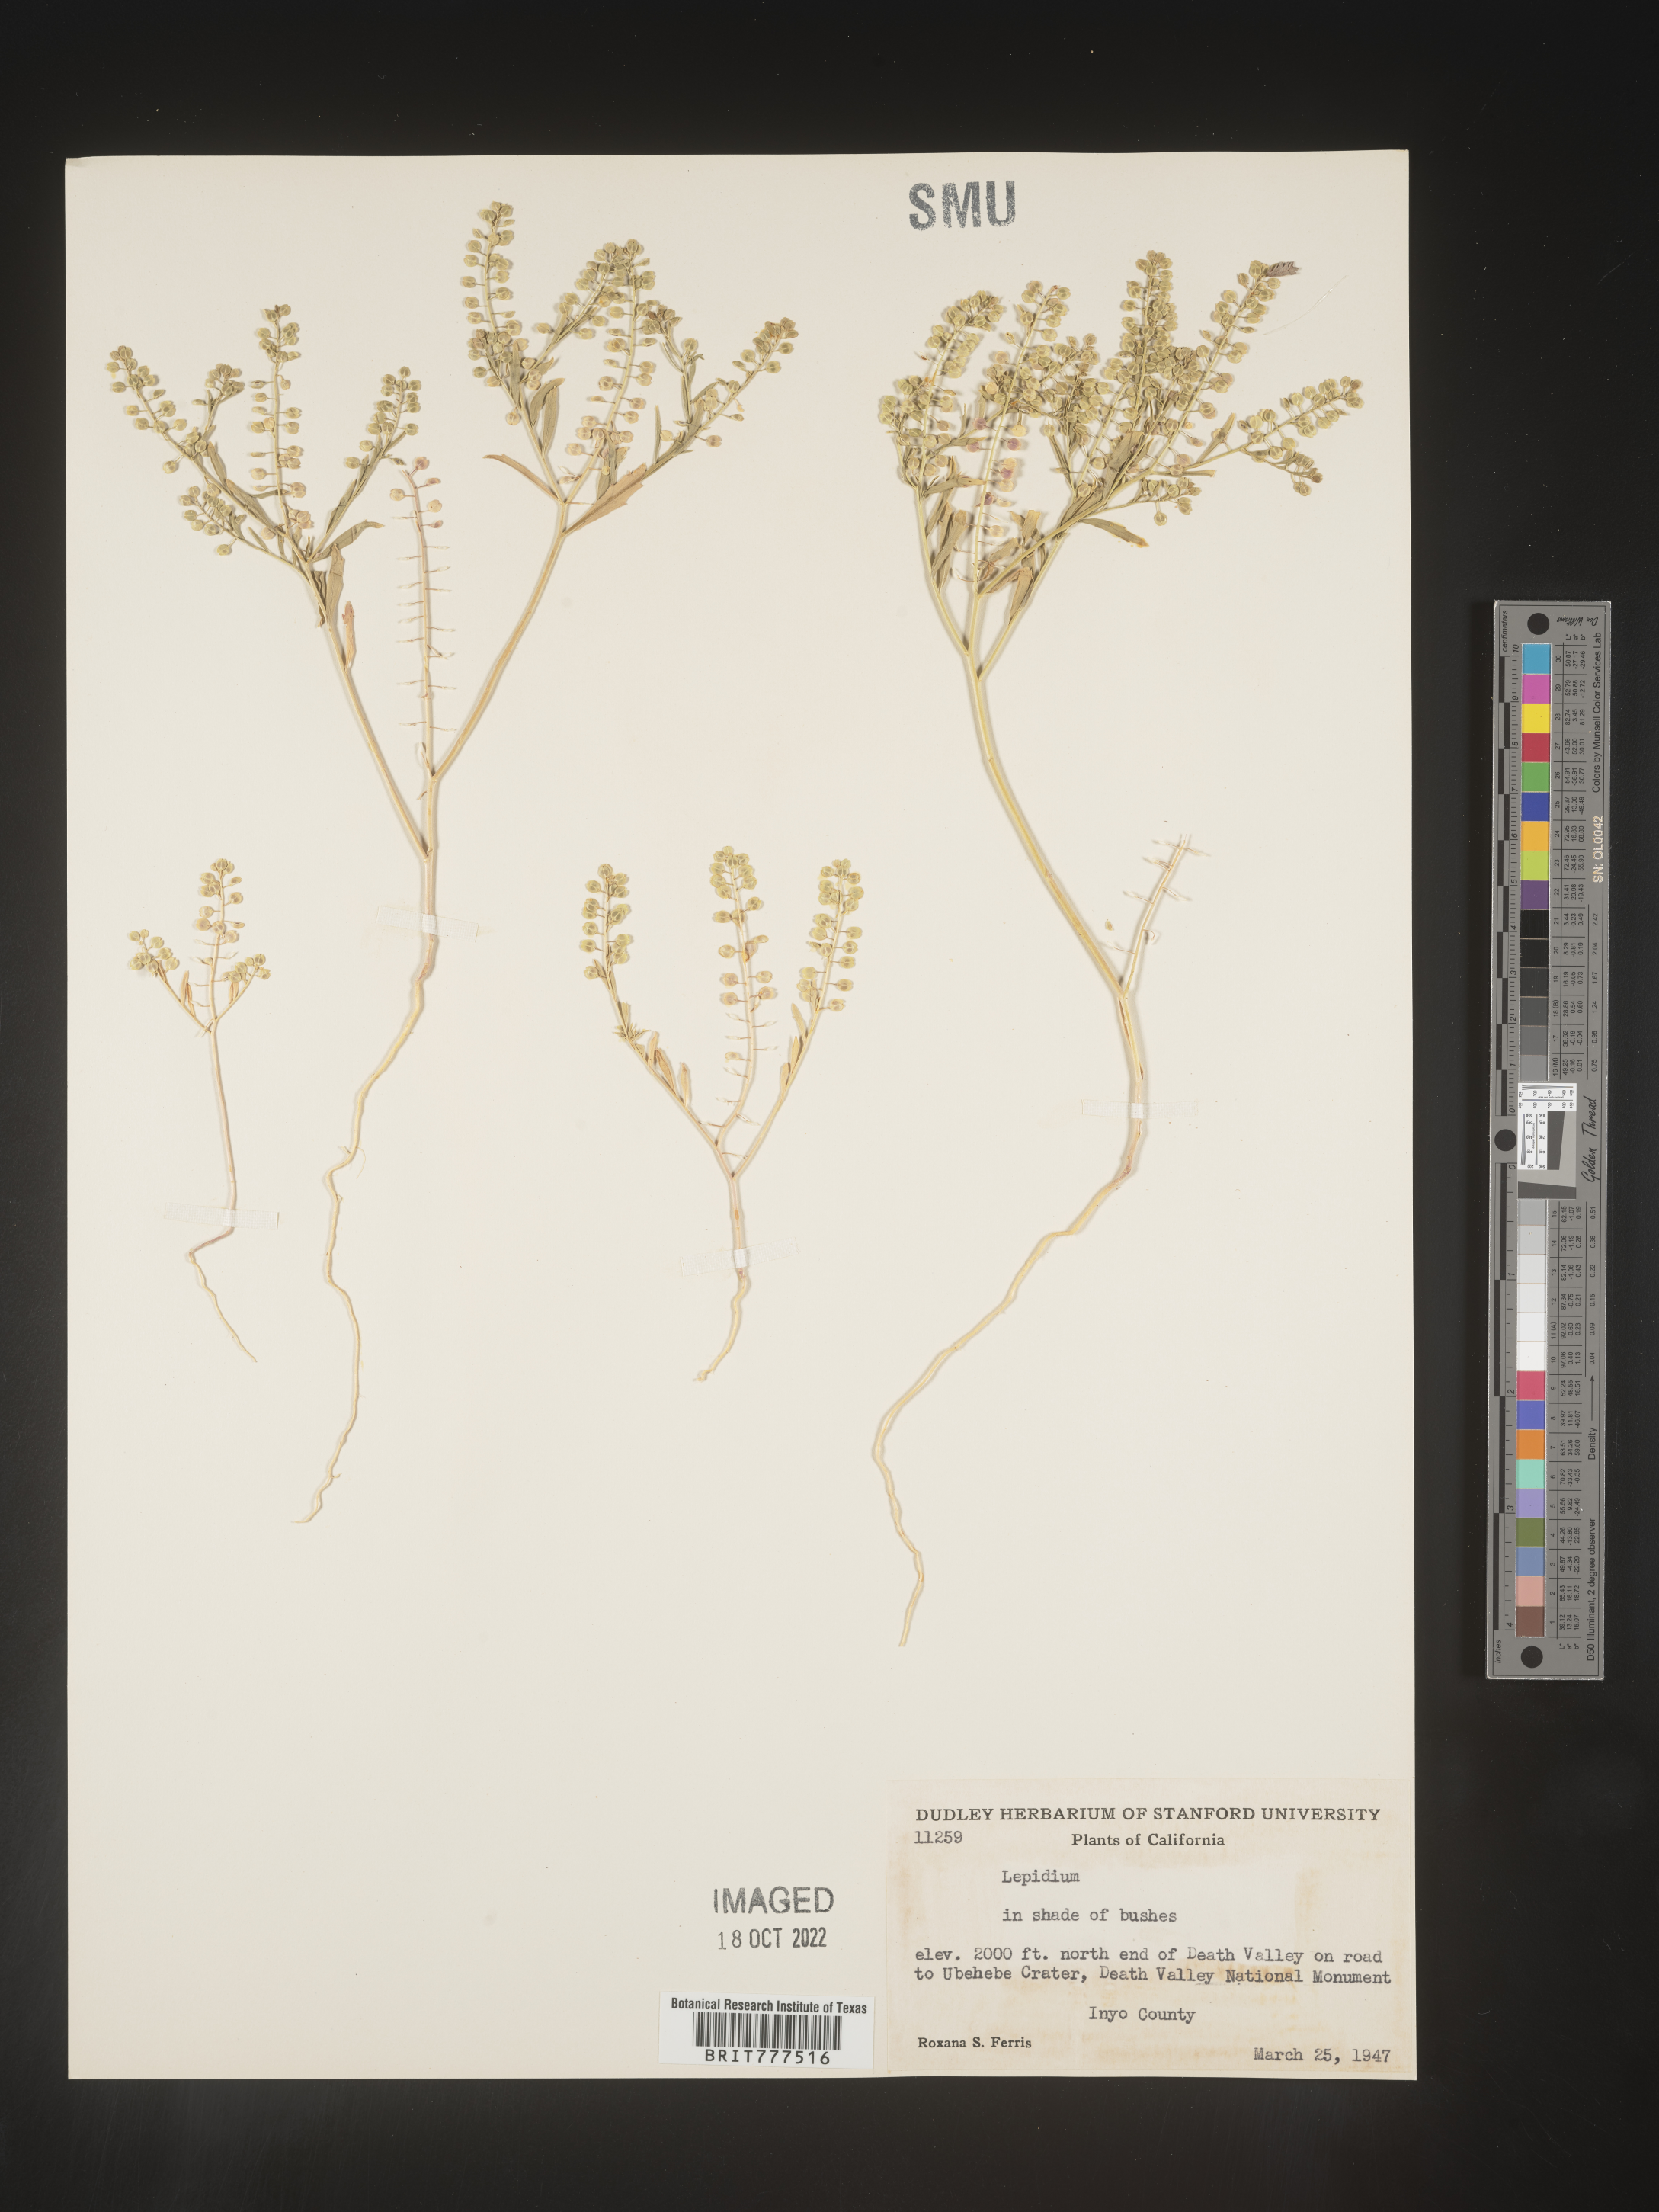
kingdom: Plantae
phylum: Tracheophyta
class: Magnoliopsida
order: Brassicales
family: Brassicaceae
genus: Lepidium
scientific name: Lepidium
